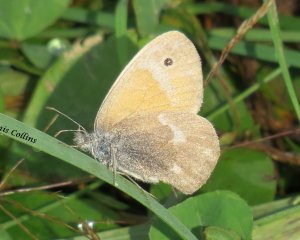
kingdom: Animalia
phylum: Arthropoda
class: Insecta
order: Lepidoptera
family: Nymphalidae
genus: Coenonympha
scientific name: Coenonympha tullia
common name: Large Heath
